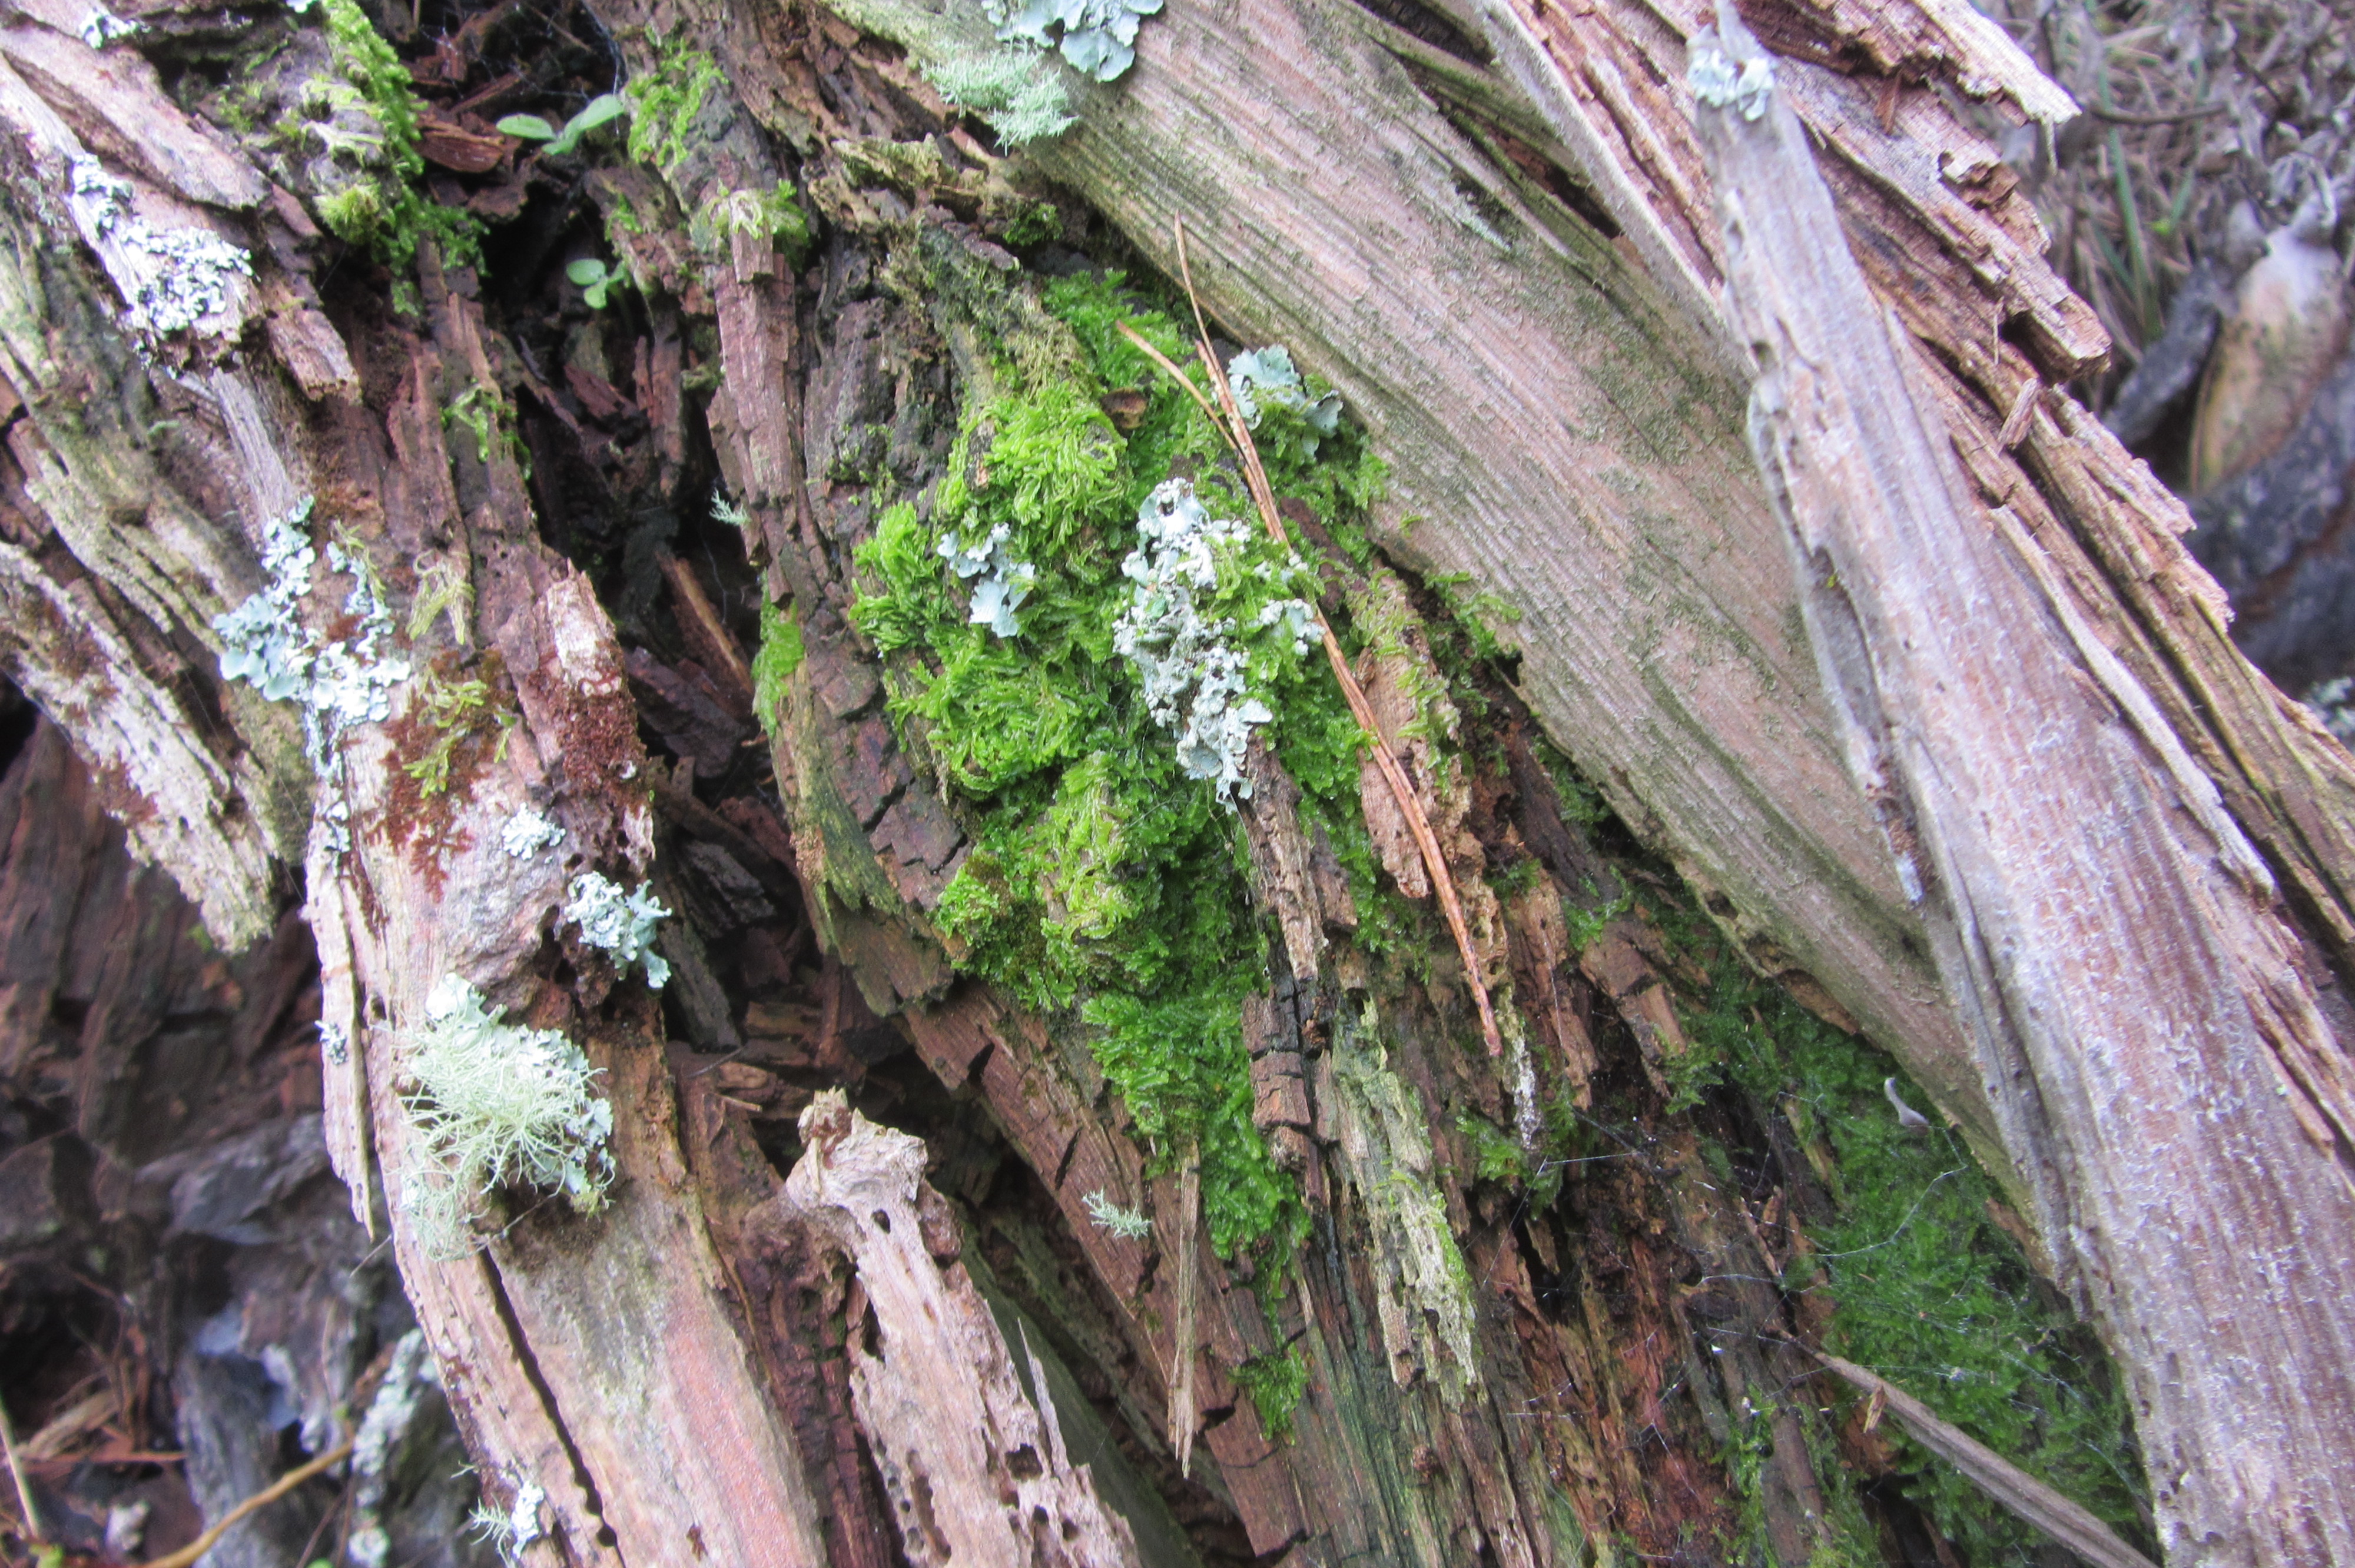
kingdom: Plantae
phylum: Marchantiophyta
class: Jungermanniopsida
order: Jungermanniales
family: Lophocoleaceae
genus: Lophocolea
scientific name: Lophocolea canaliculata
